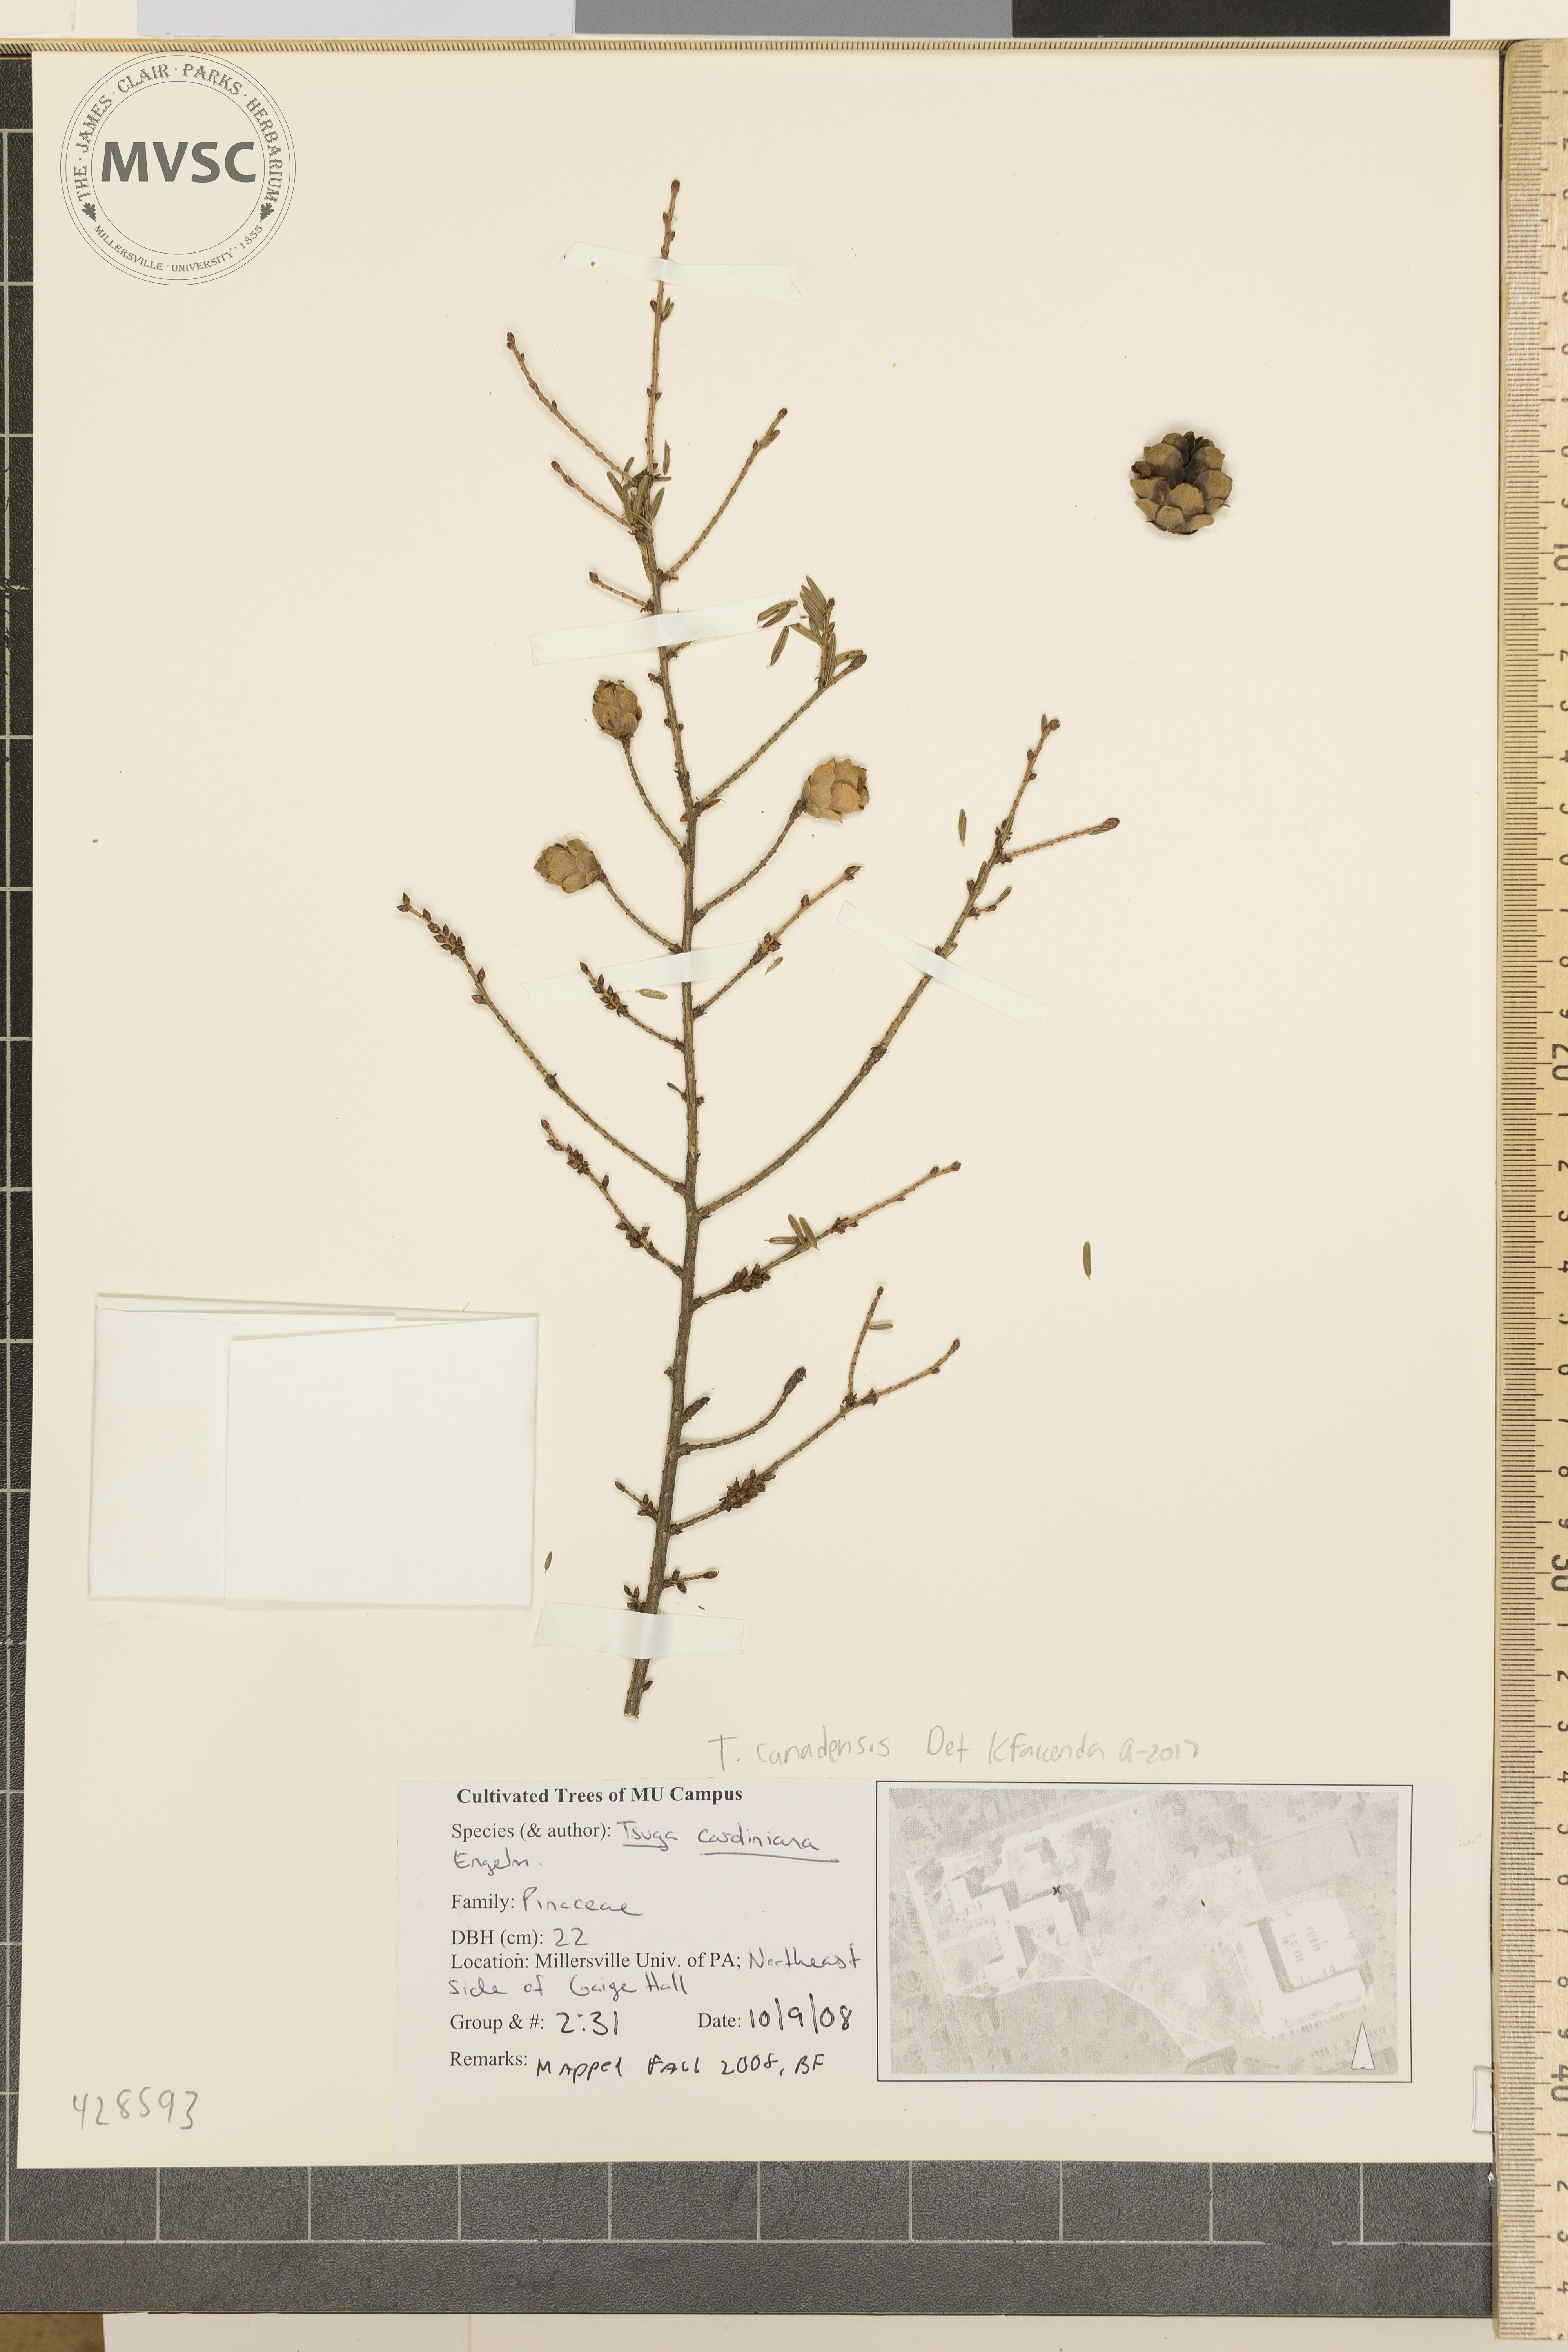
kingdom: Plantae
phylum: Tracheophyta
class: Pinopsida
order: Pinales
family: Pinaceae
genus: Tsuga
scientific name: Tsuga canadensis
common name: Eastern hemlock
